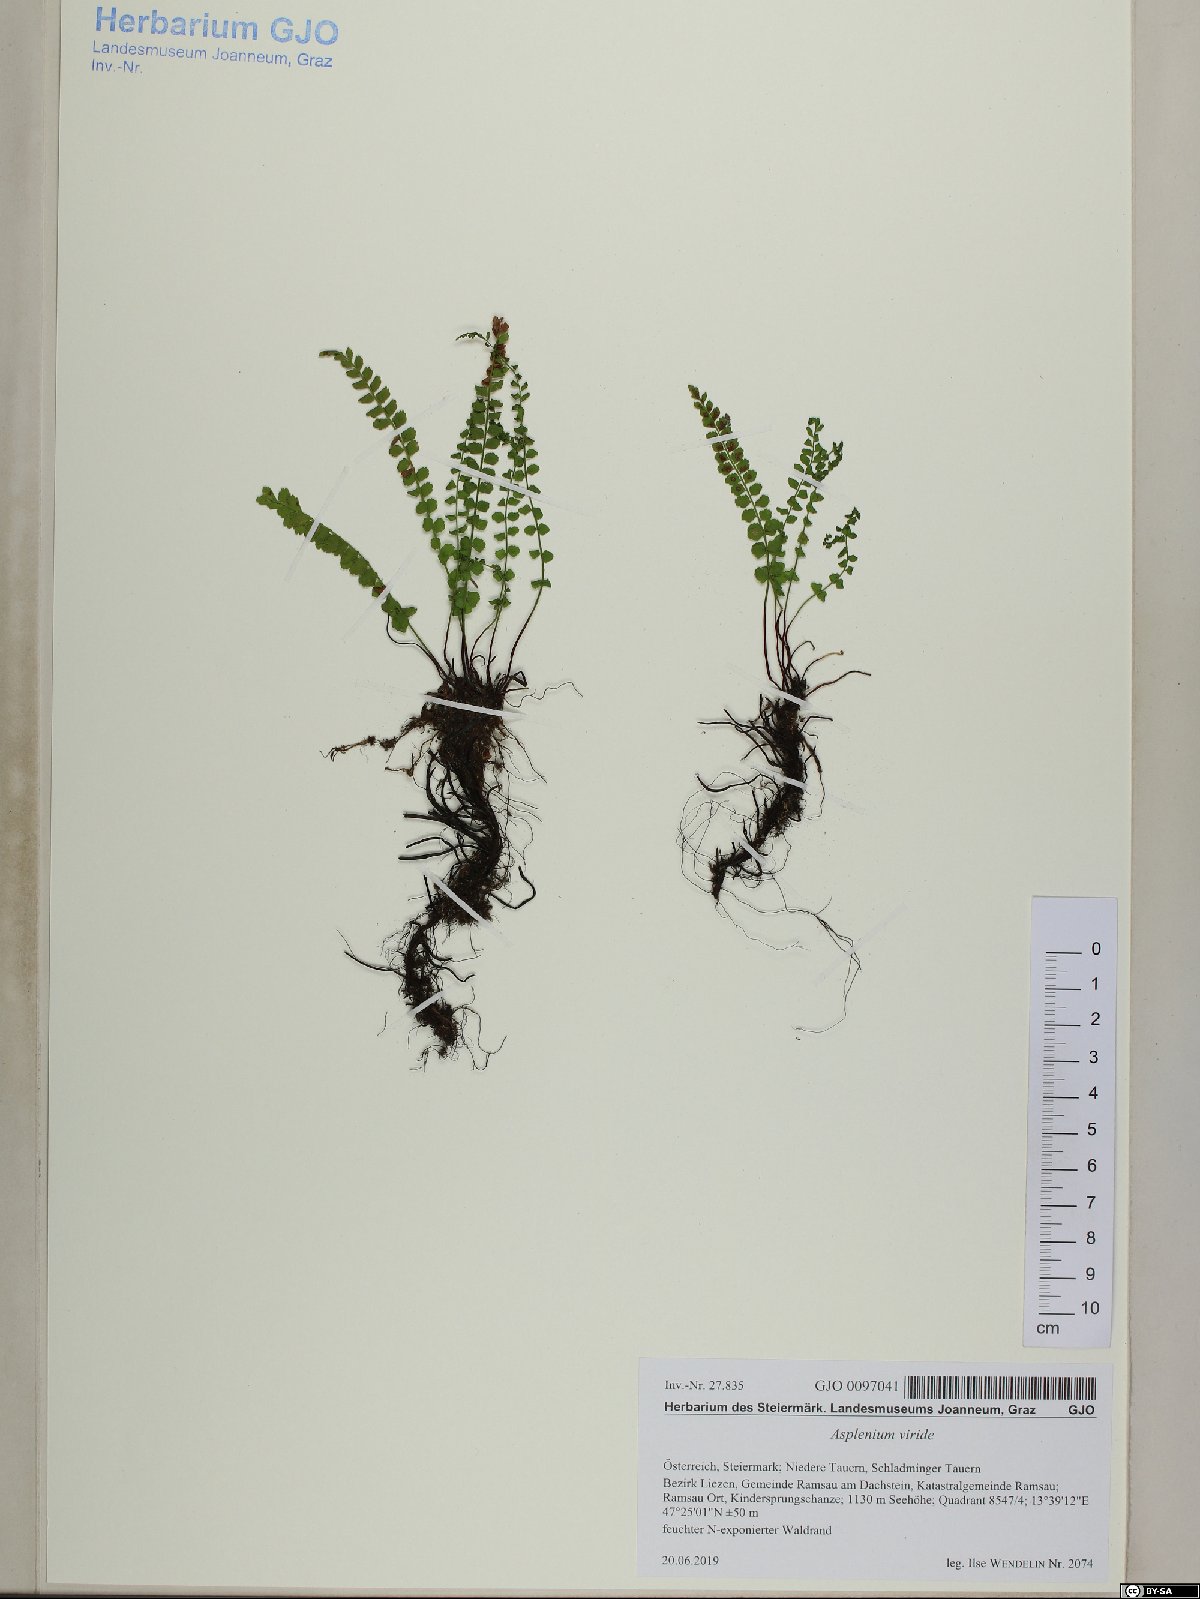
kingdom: Plantae
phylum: Tracheophyta
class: Polypodiopsida
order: Polypodiales
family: Aspleniaceae
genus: Asplenium
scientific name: Asplenium viride
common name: Green spleenwort
